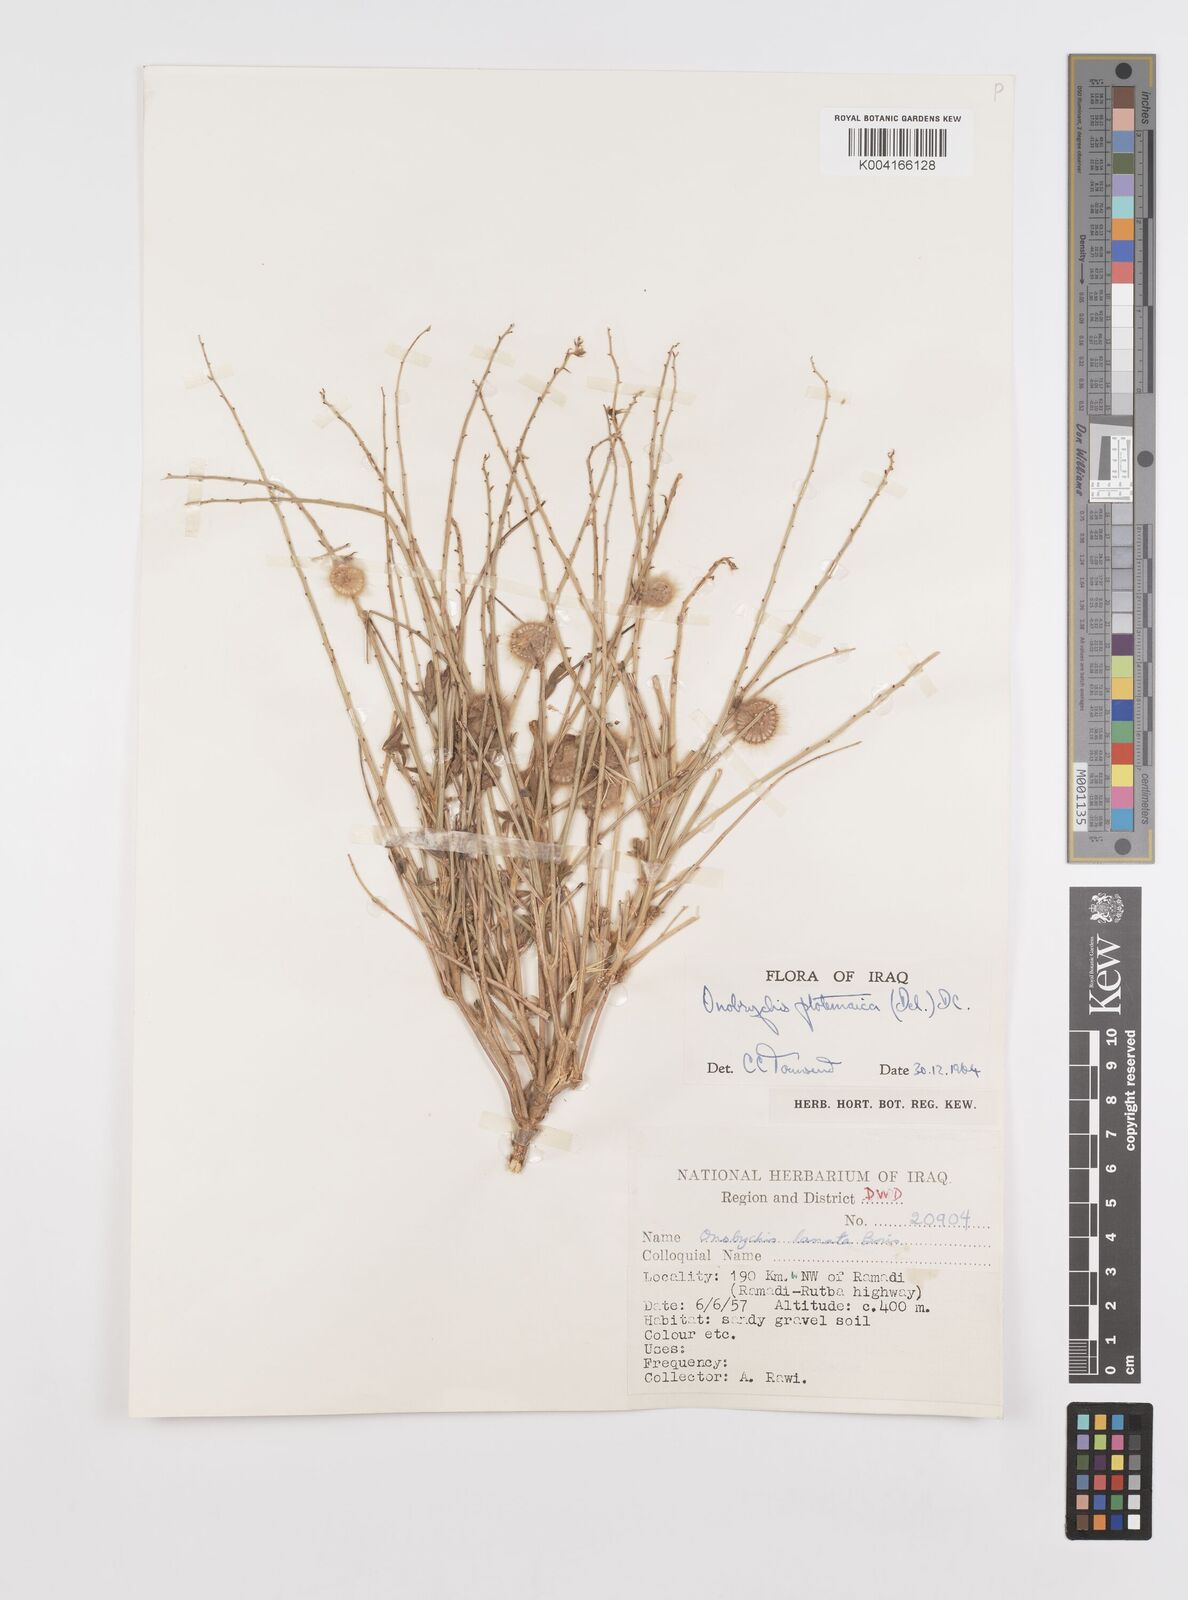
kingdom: Plantae
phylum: Tracheophyta
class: Magnoliopsida
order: Fabales
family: Fabaceae
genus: Onobrychis
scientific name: Onobrychis ptolemaica
